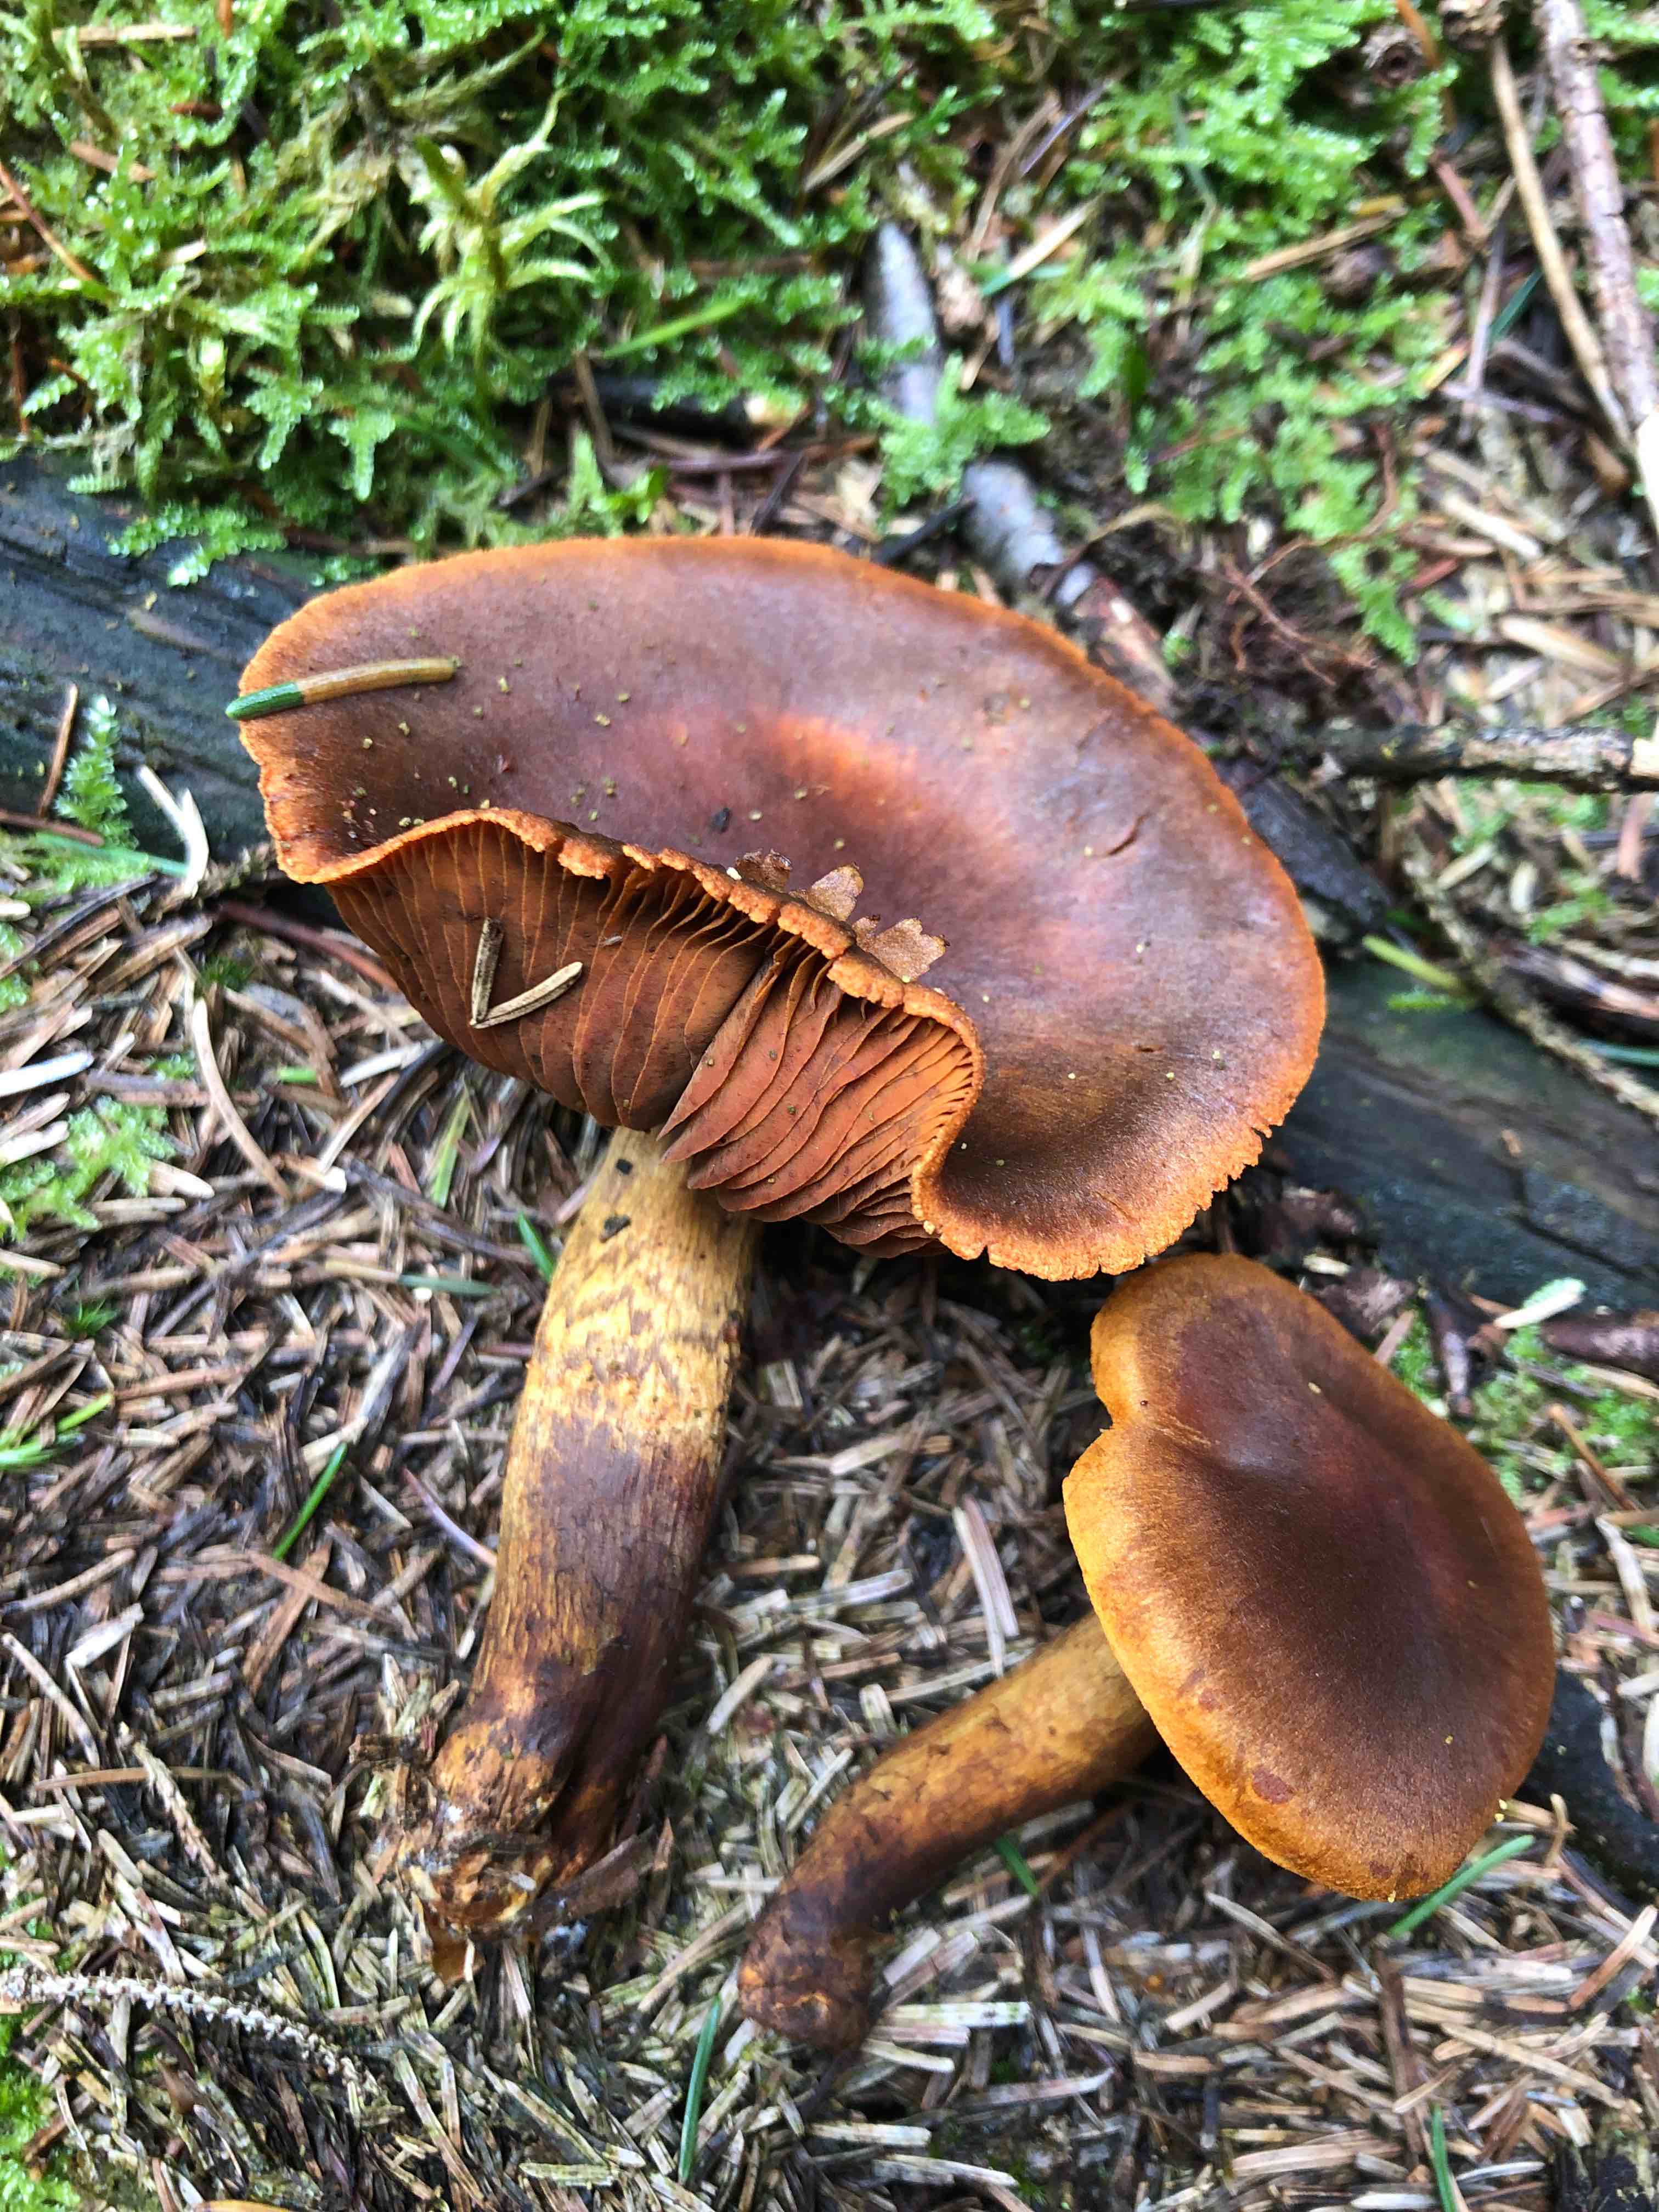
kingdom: Fungi
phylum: Basidiomycota
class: Agaricomycetes
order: Agaricales
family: Cortinariaceae
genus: Cortinarius
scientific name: Cortinarius malicorius
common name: grønkødet slørhat
